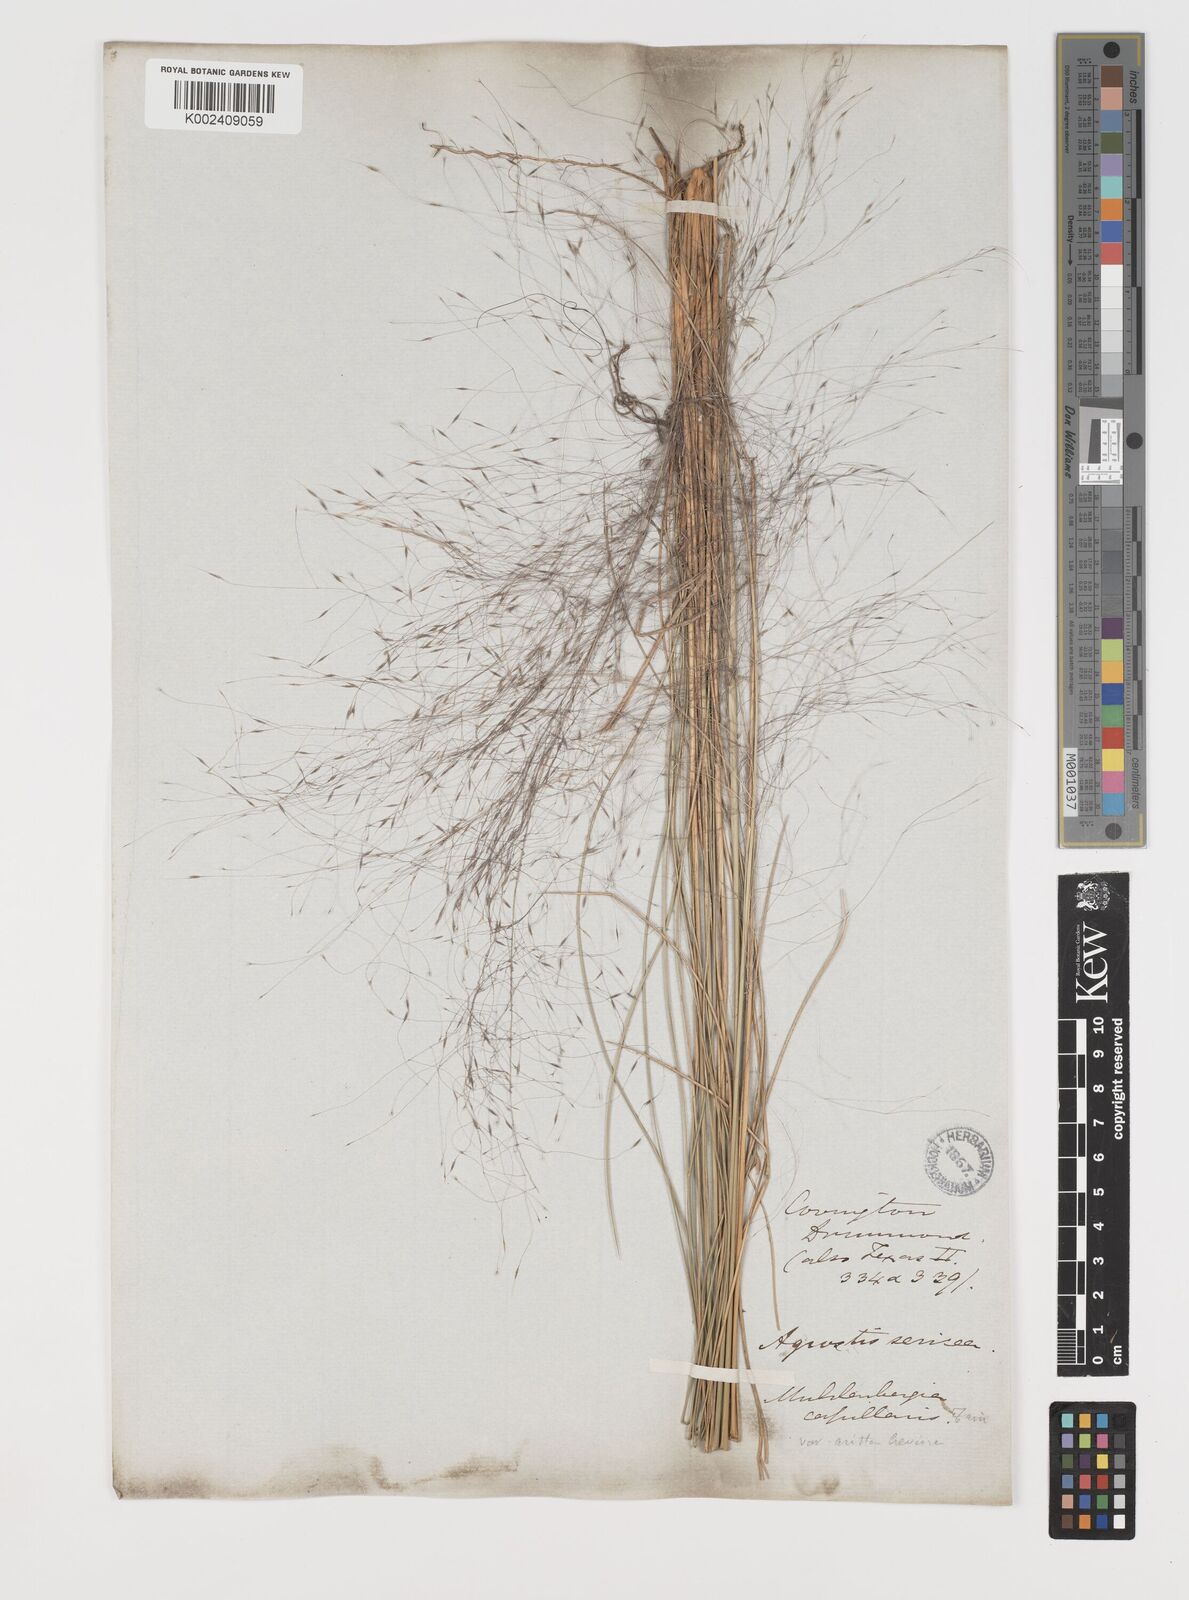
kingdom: Plantae
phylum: Tracheophyta
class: Liliopsida
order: Poales
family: Poaceae
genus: Muhlenbergia
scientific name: Muhlenbergia capillaris
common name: Purple grass
